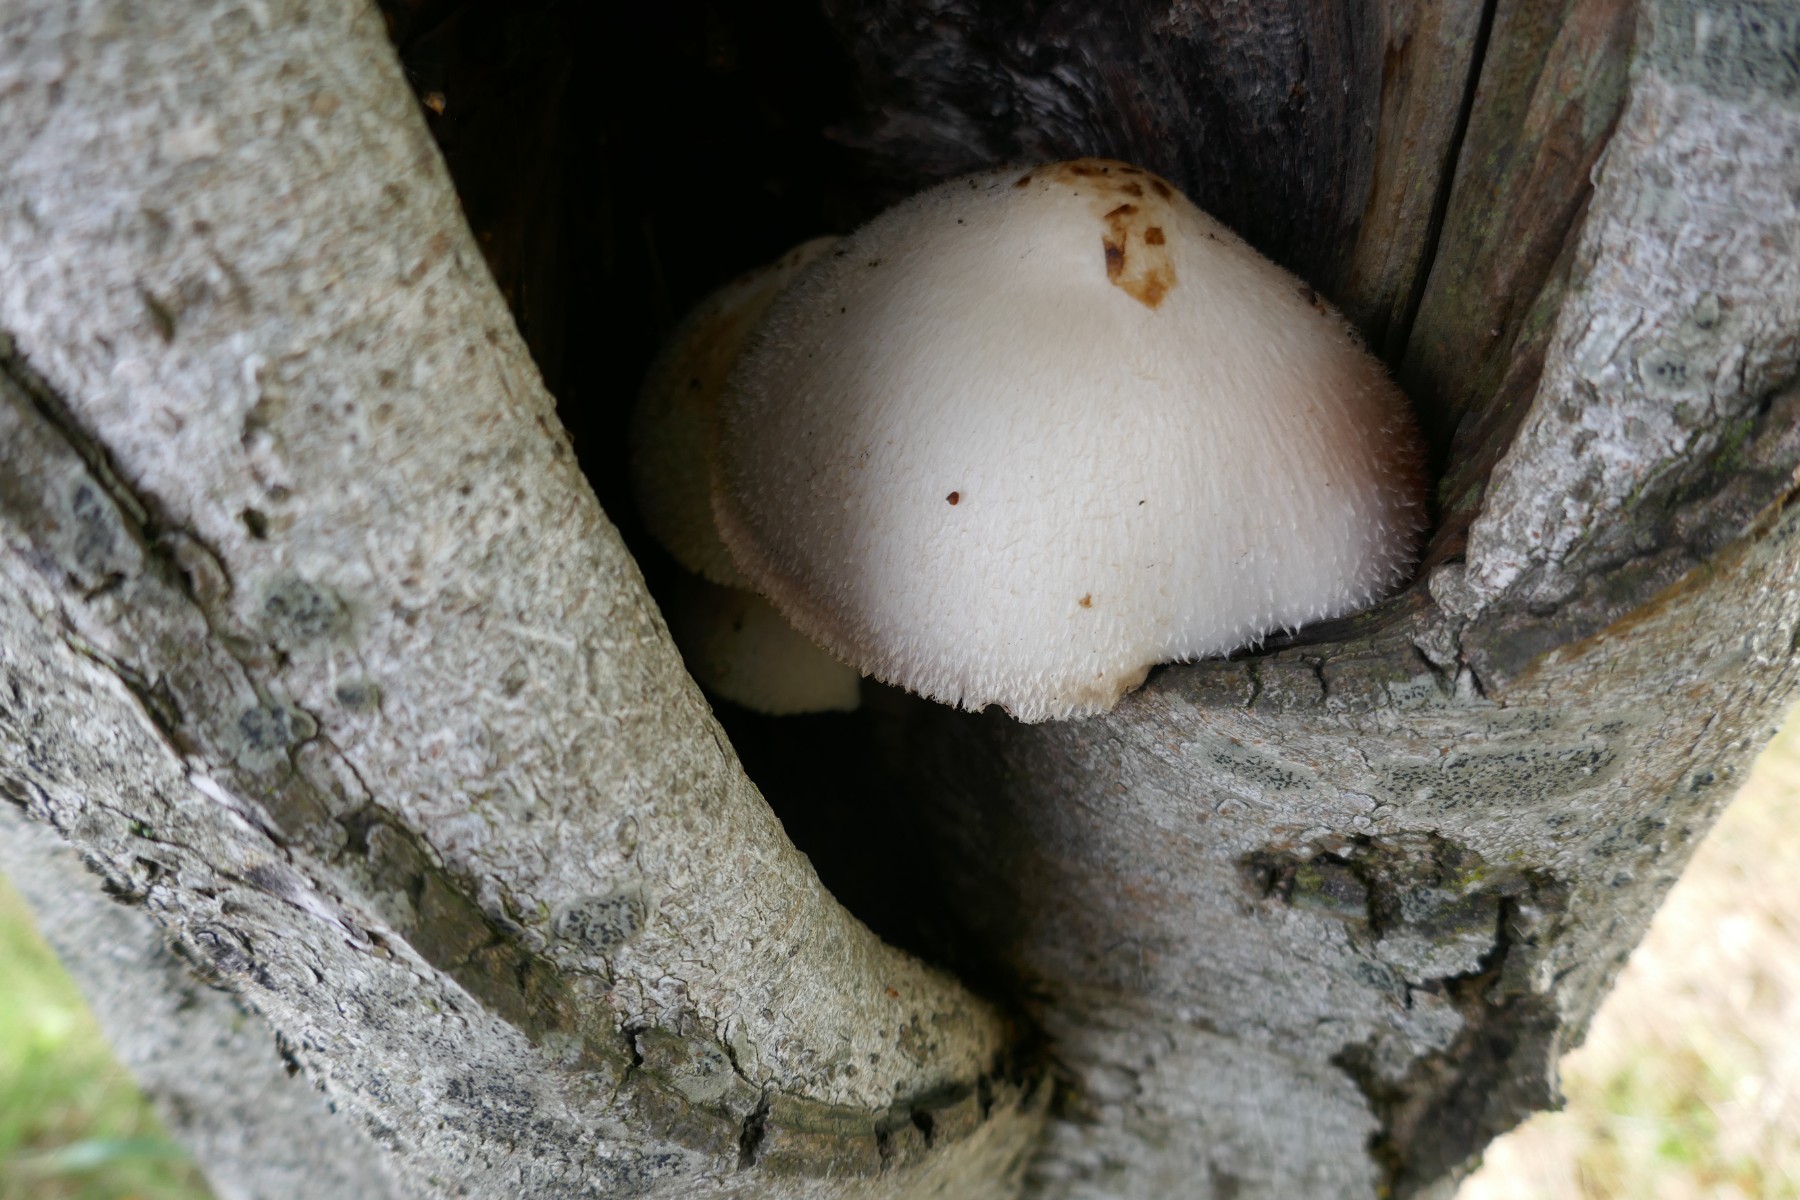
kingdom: Fungi
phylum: Basidiomycota
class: Agaricomycetes
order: Agaricales
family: Pluteaceae
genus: Volvariella
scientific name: Volvariella bombycina
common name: silkehåret posesvamp
